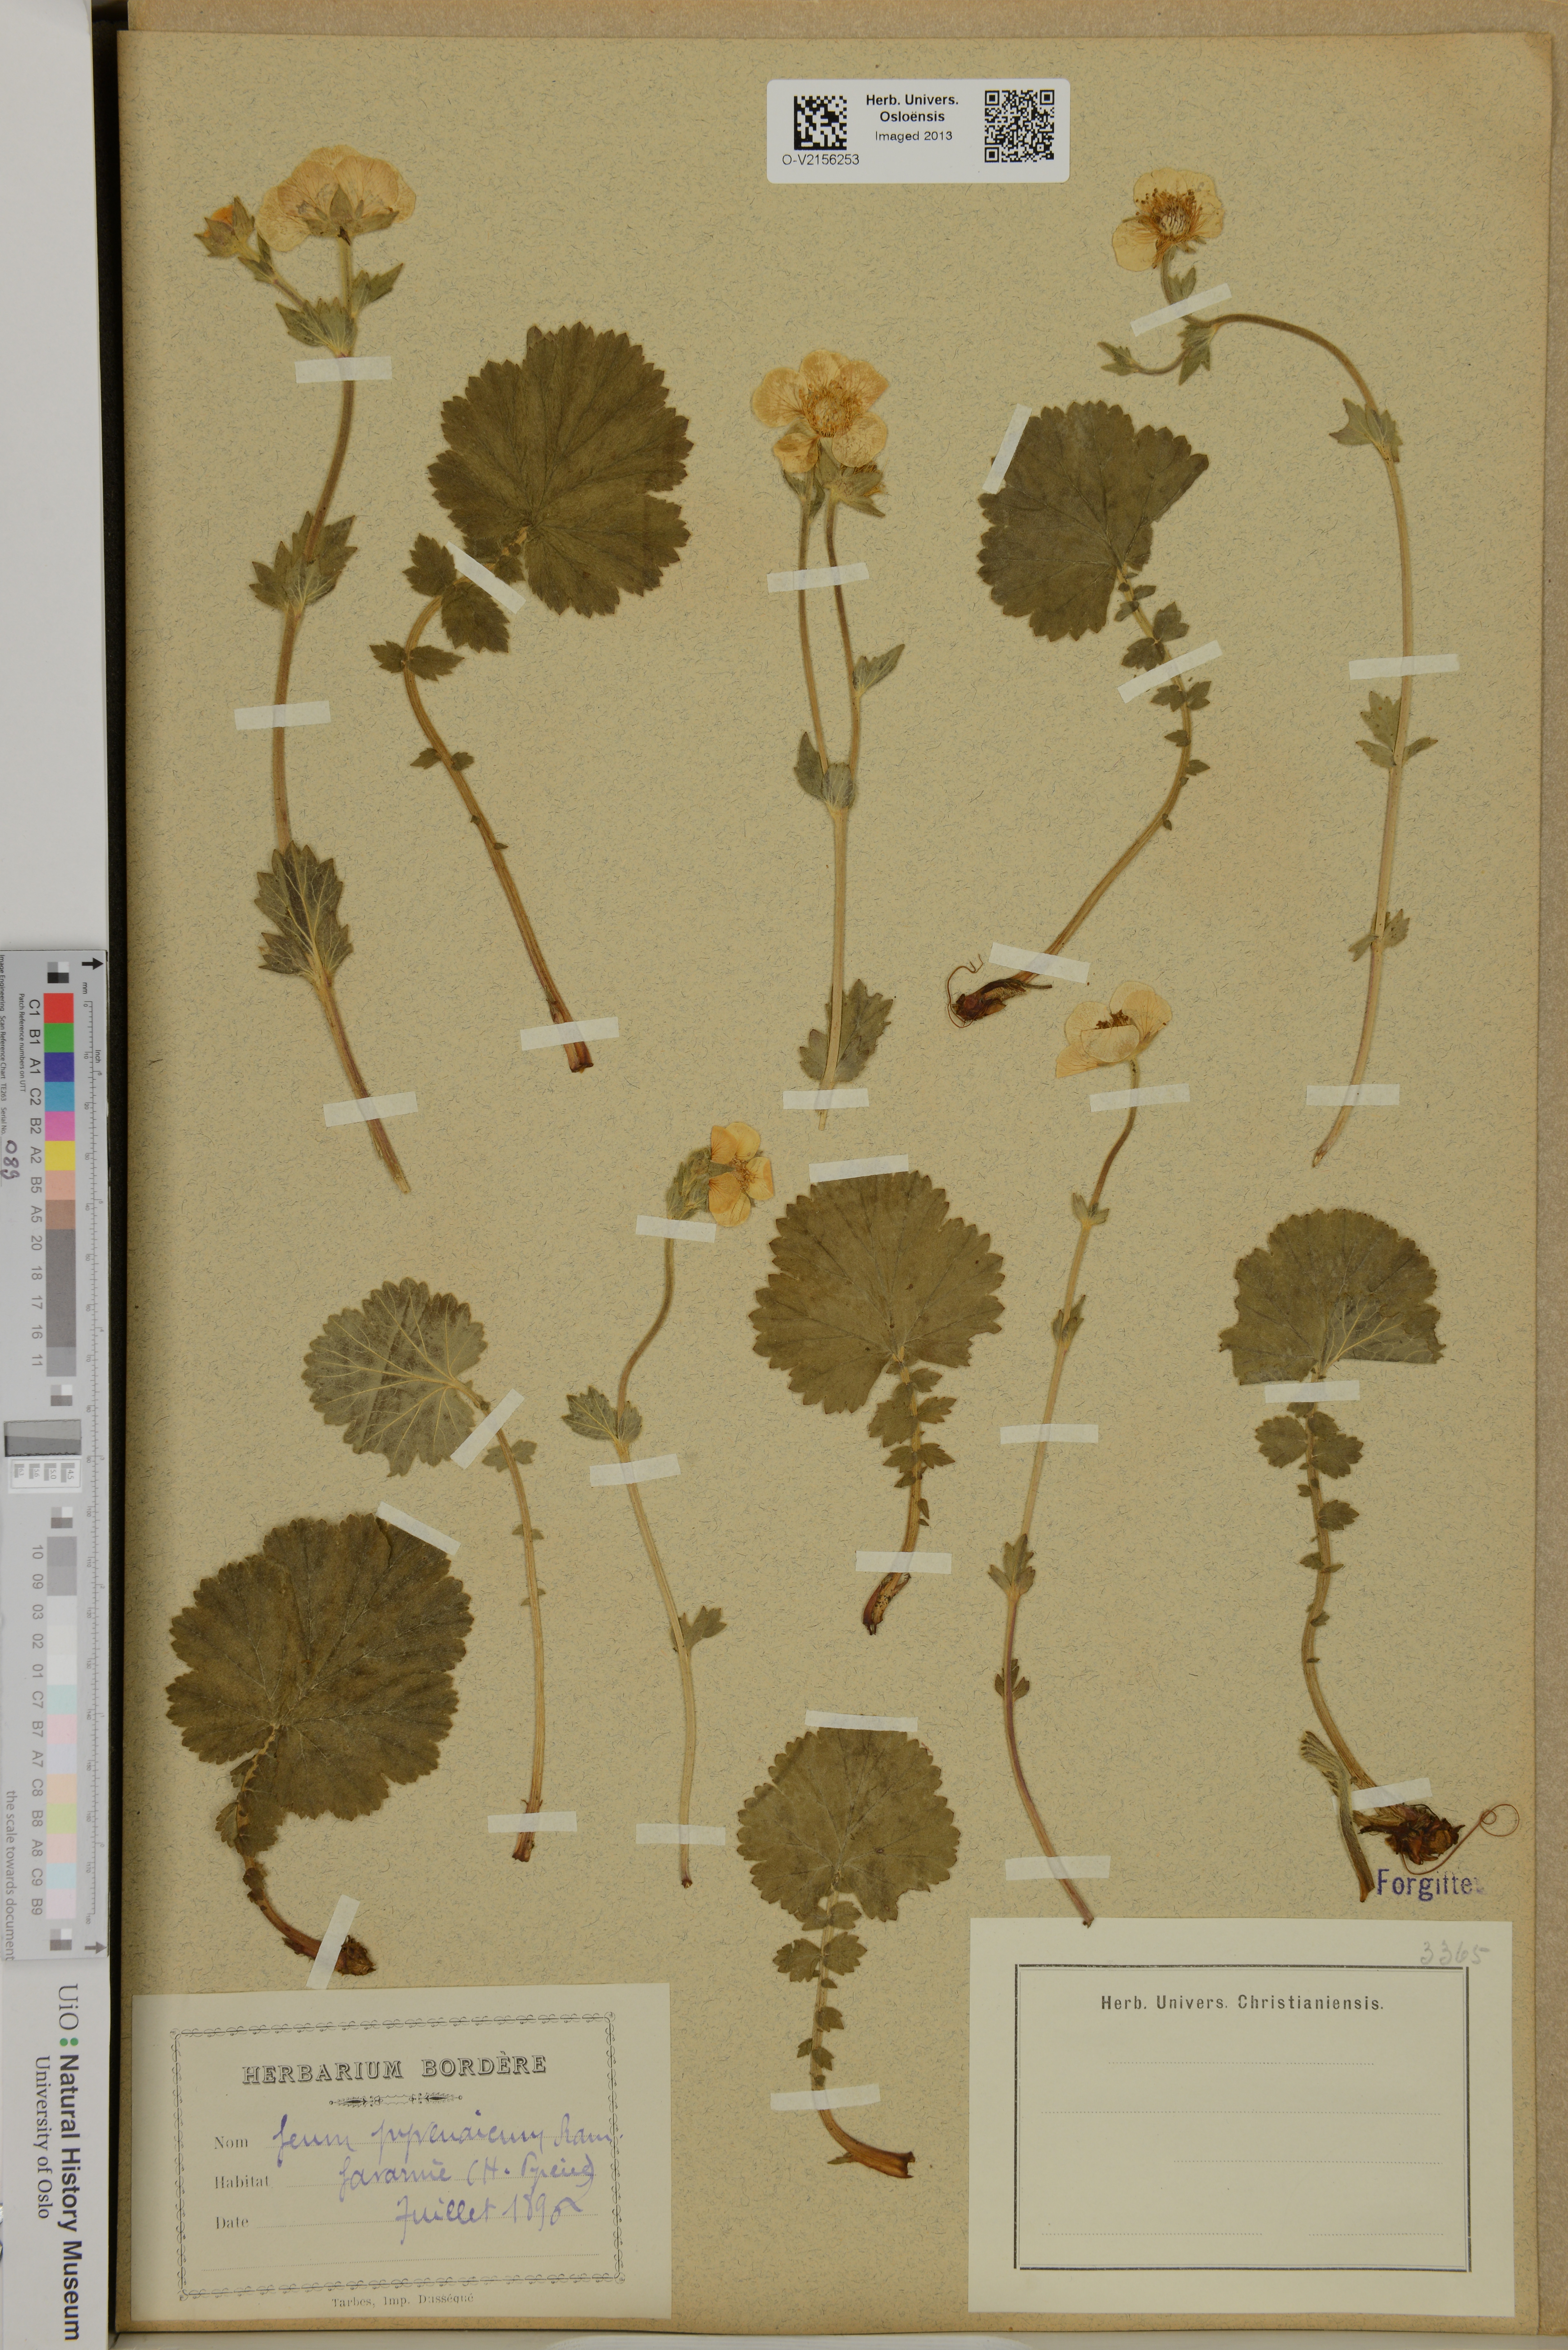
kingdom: Plantae
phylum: Tracheophyta
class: Magnoliopsida
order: Rosales
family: Rosaceae
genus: Geum
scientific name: Geum pyrenaicum
